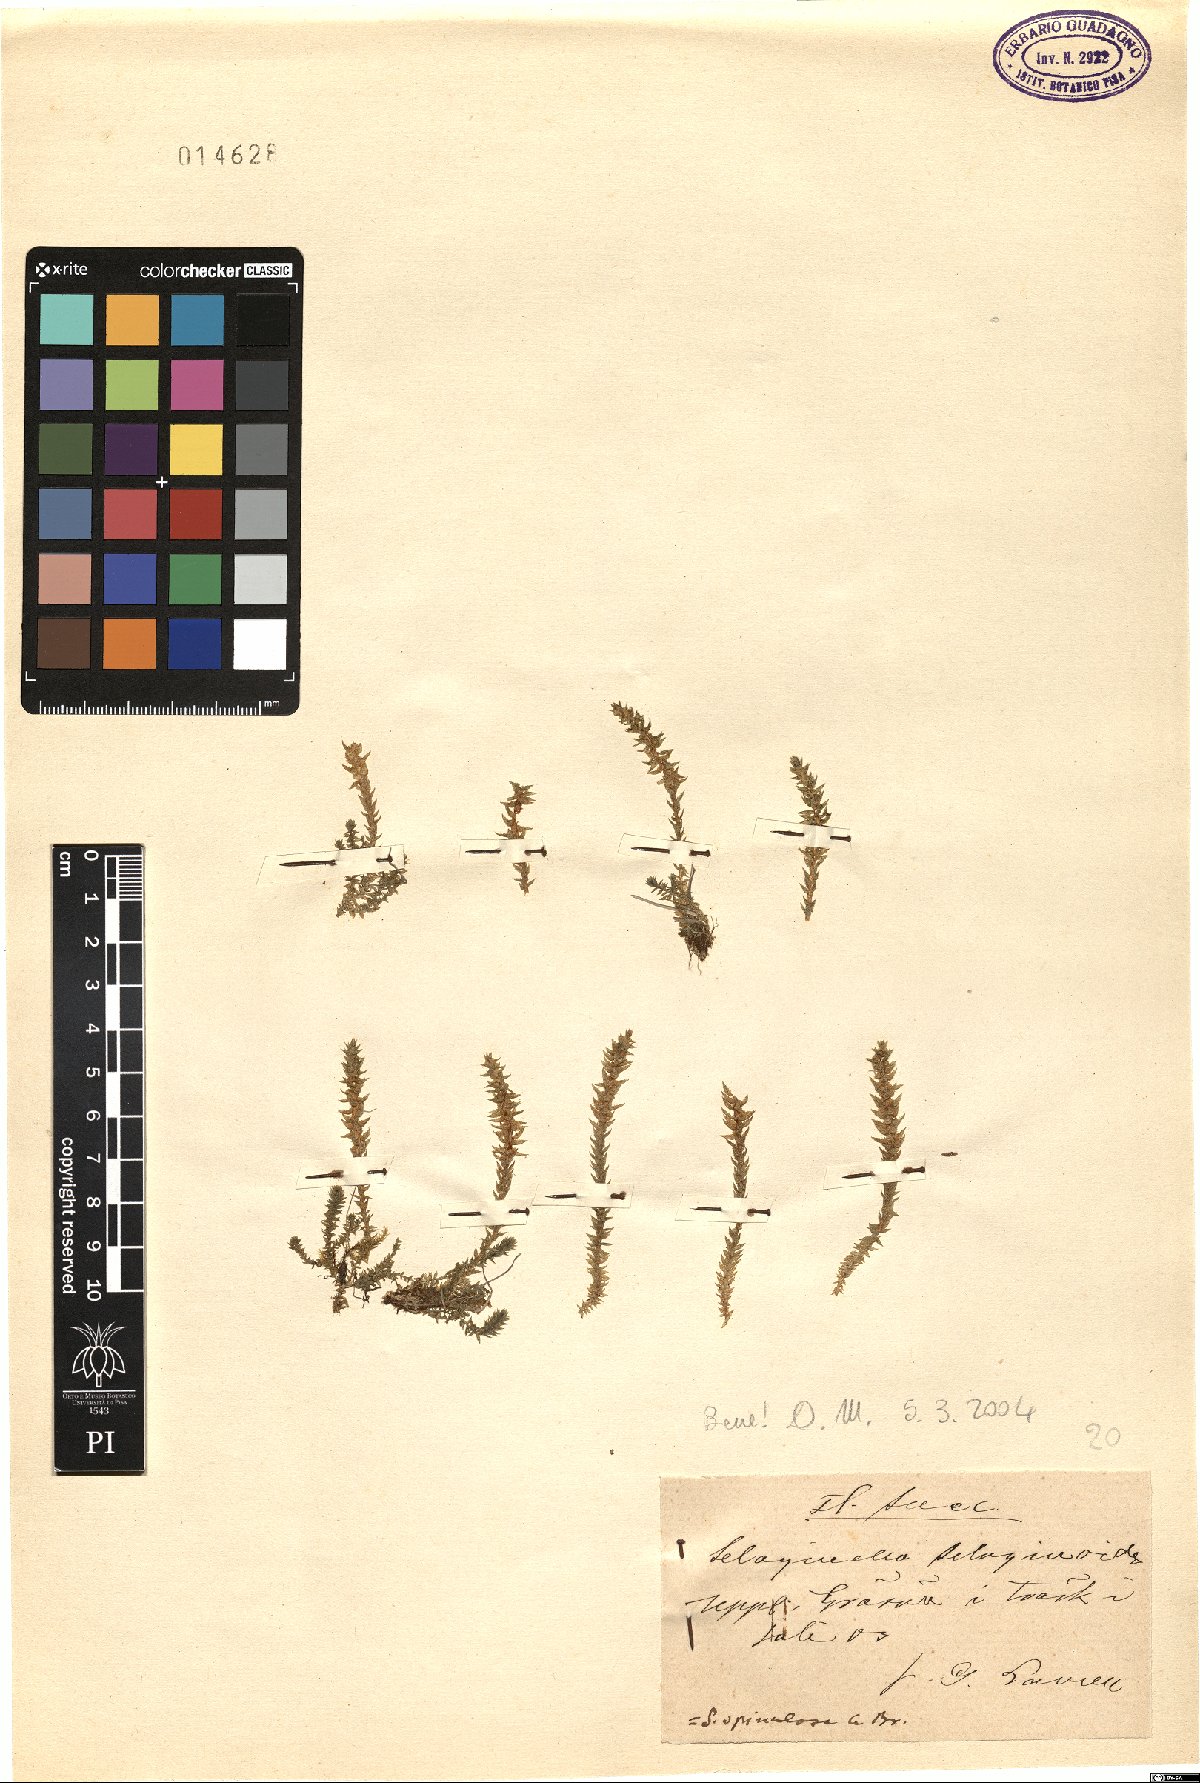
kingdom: Plantae
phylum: Tracheophyta
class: Lycopodiopsida
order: Selaginellales
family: Selaginellaceae
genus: Selaginella
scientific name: Selaginella selaginoides
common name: Prickly mountain-moss
